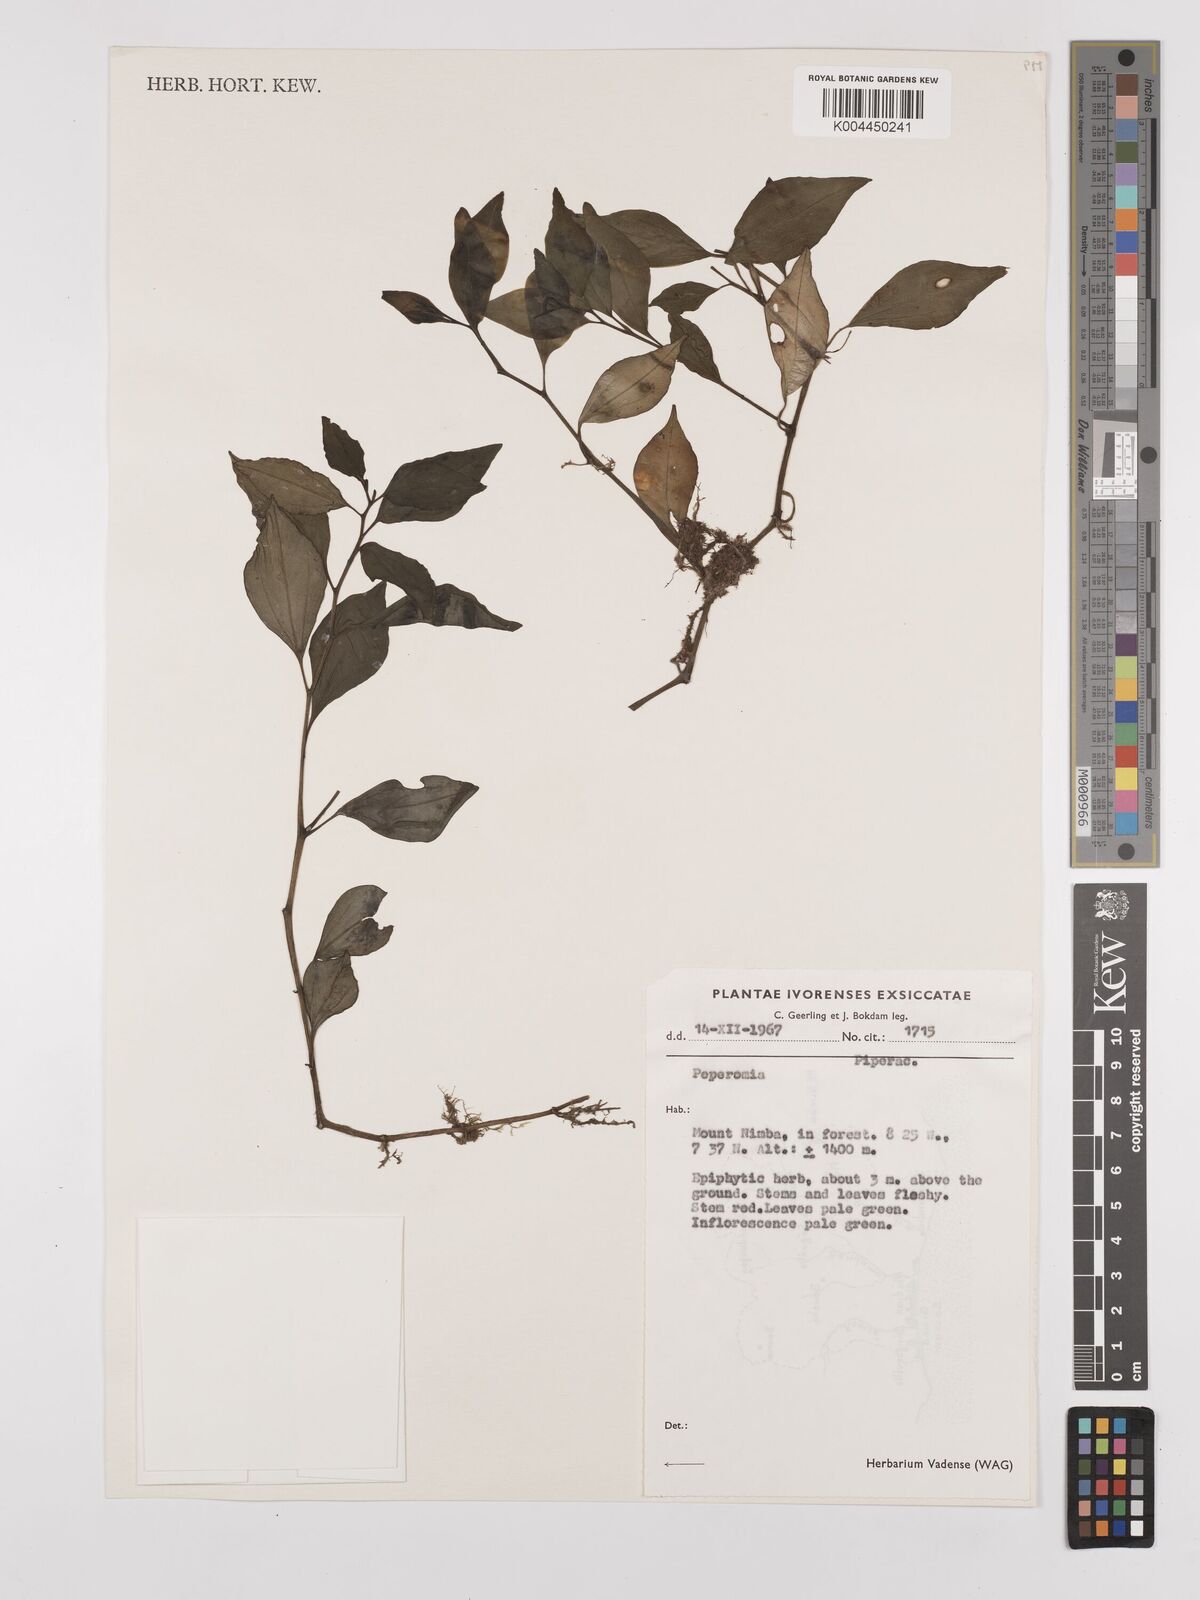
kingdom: Plantae
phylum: Tracheophyta
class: Magnoliopsida
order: Piperales
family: Piperaceae
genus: Peperomia
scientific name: Peperomia
